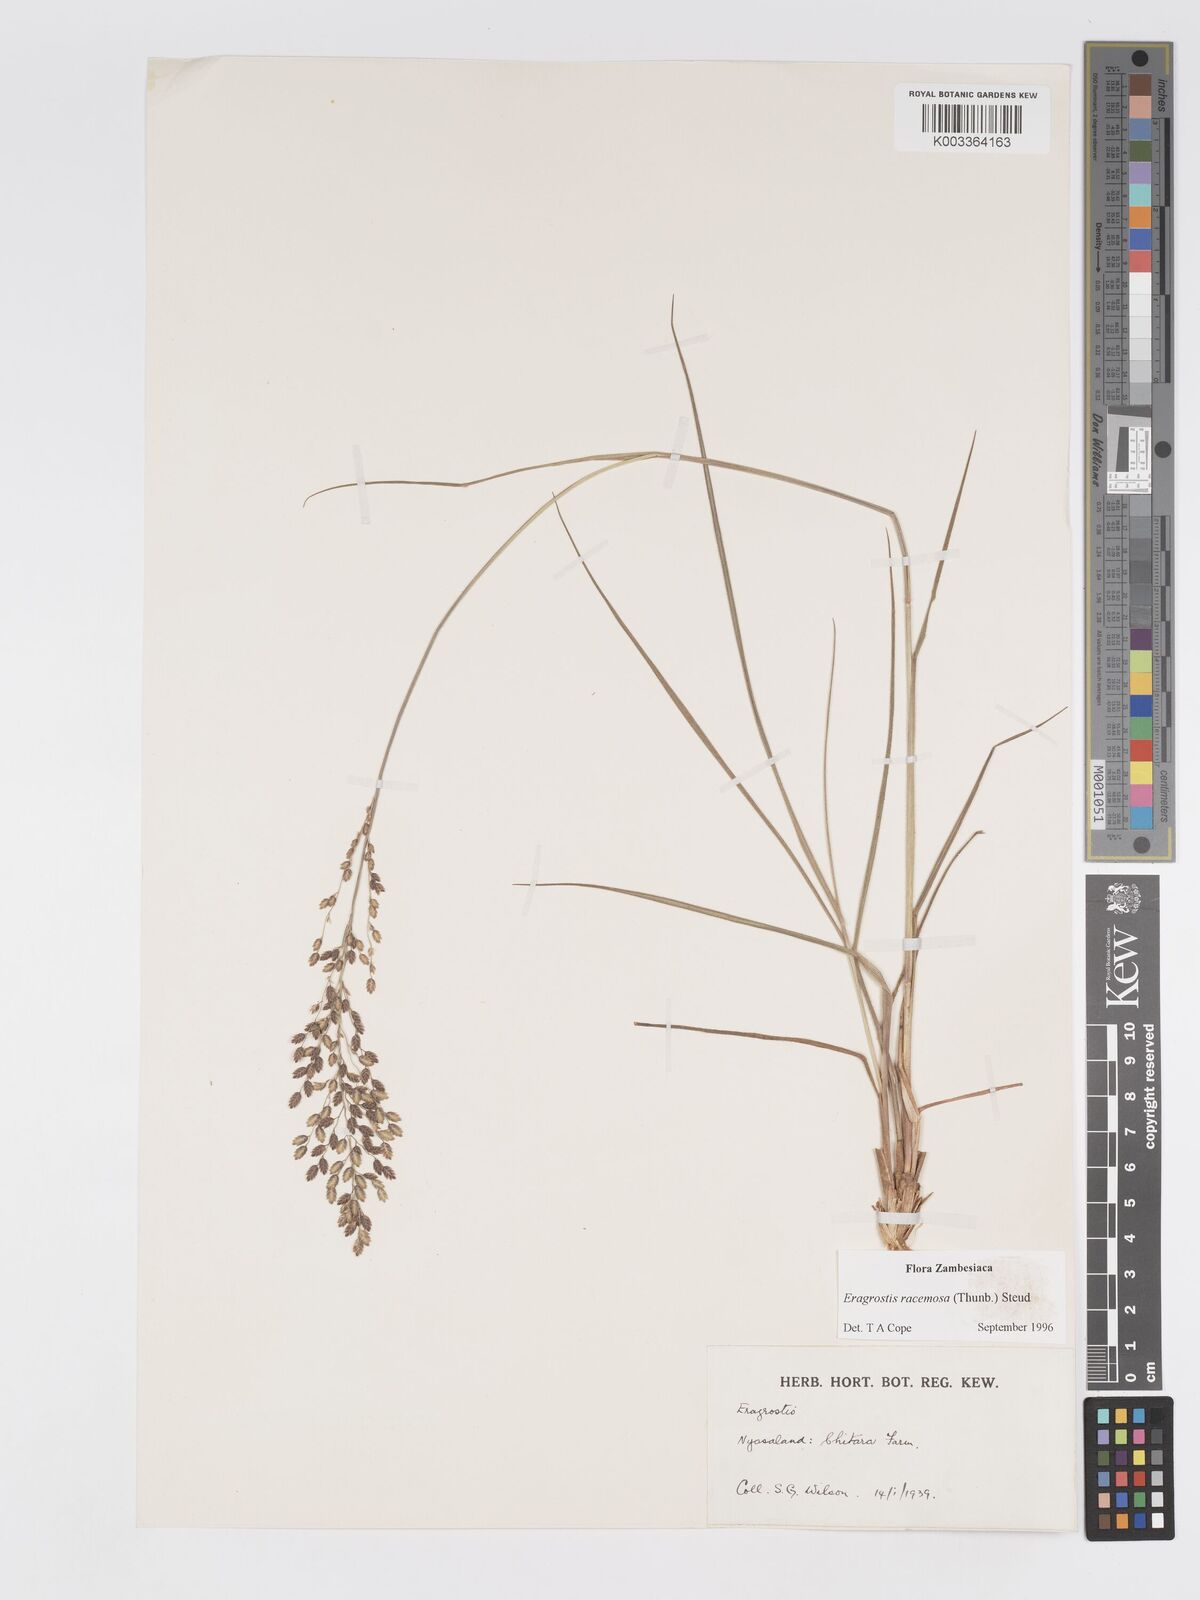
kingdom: Plantae
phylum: Tracheophyta
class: Liliopsida
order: Poales
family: Poaceae
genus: Eragrostis
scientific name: Eragrostis racemosa
